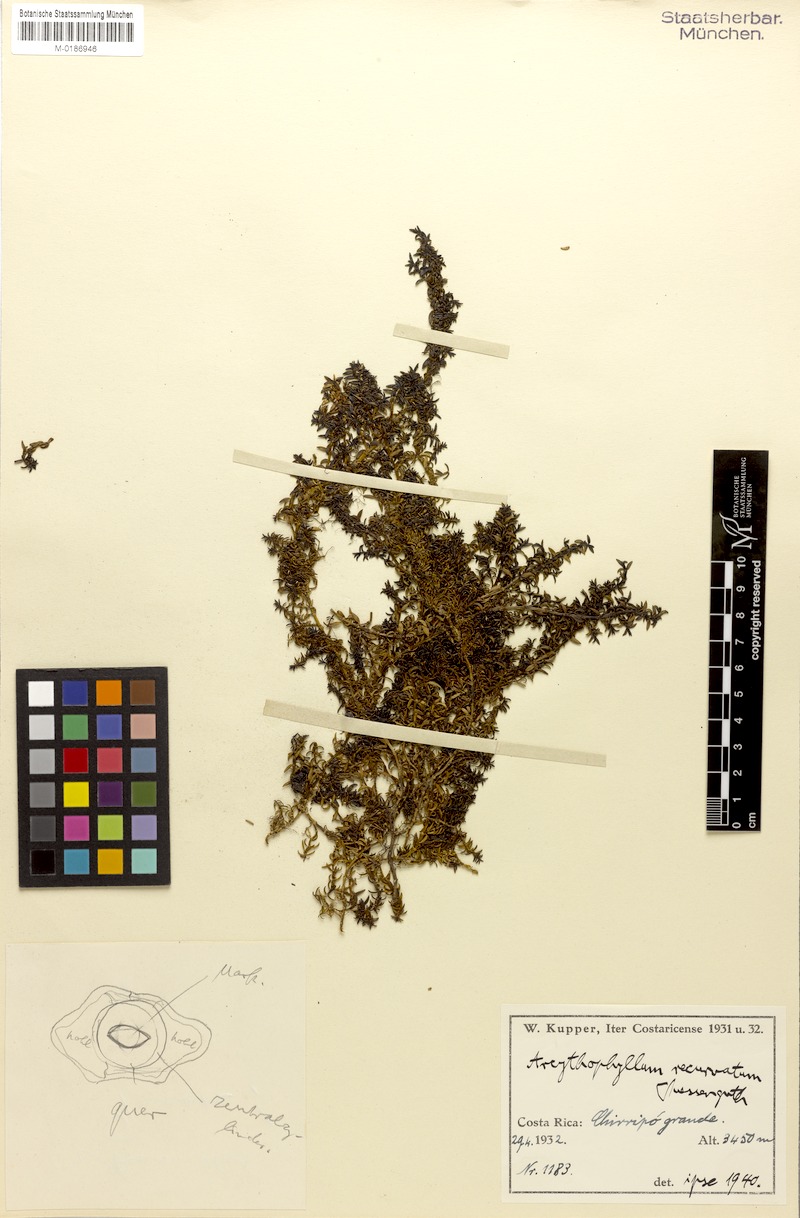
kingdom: Plantae
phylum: Tracheophyta
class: Magnoliopsida
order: Gentianales
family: Rubiaceae
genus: Arcytophyllum
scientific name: Arcytophyllum muticum
